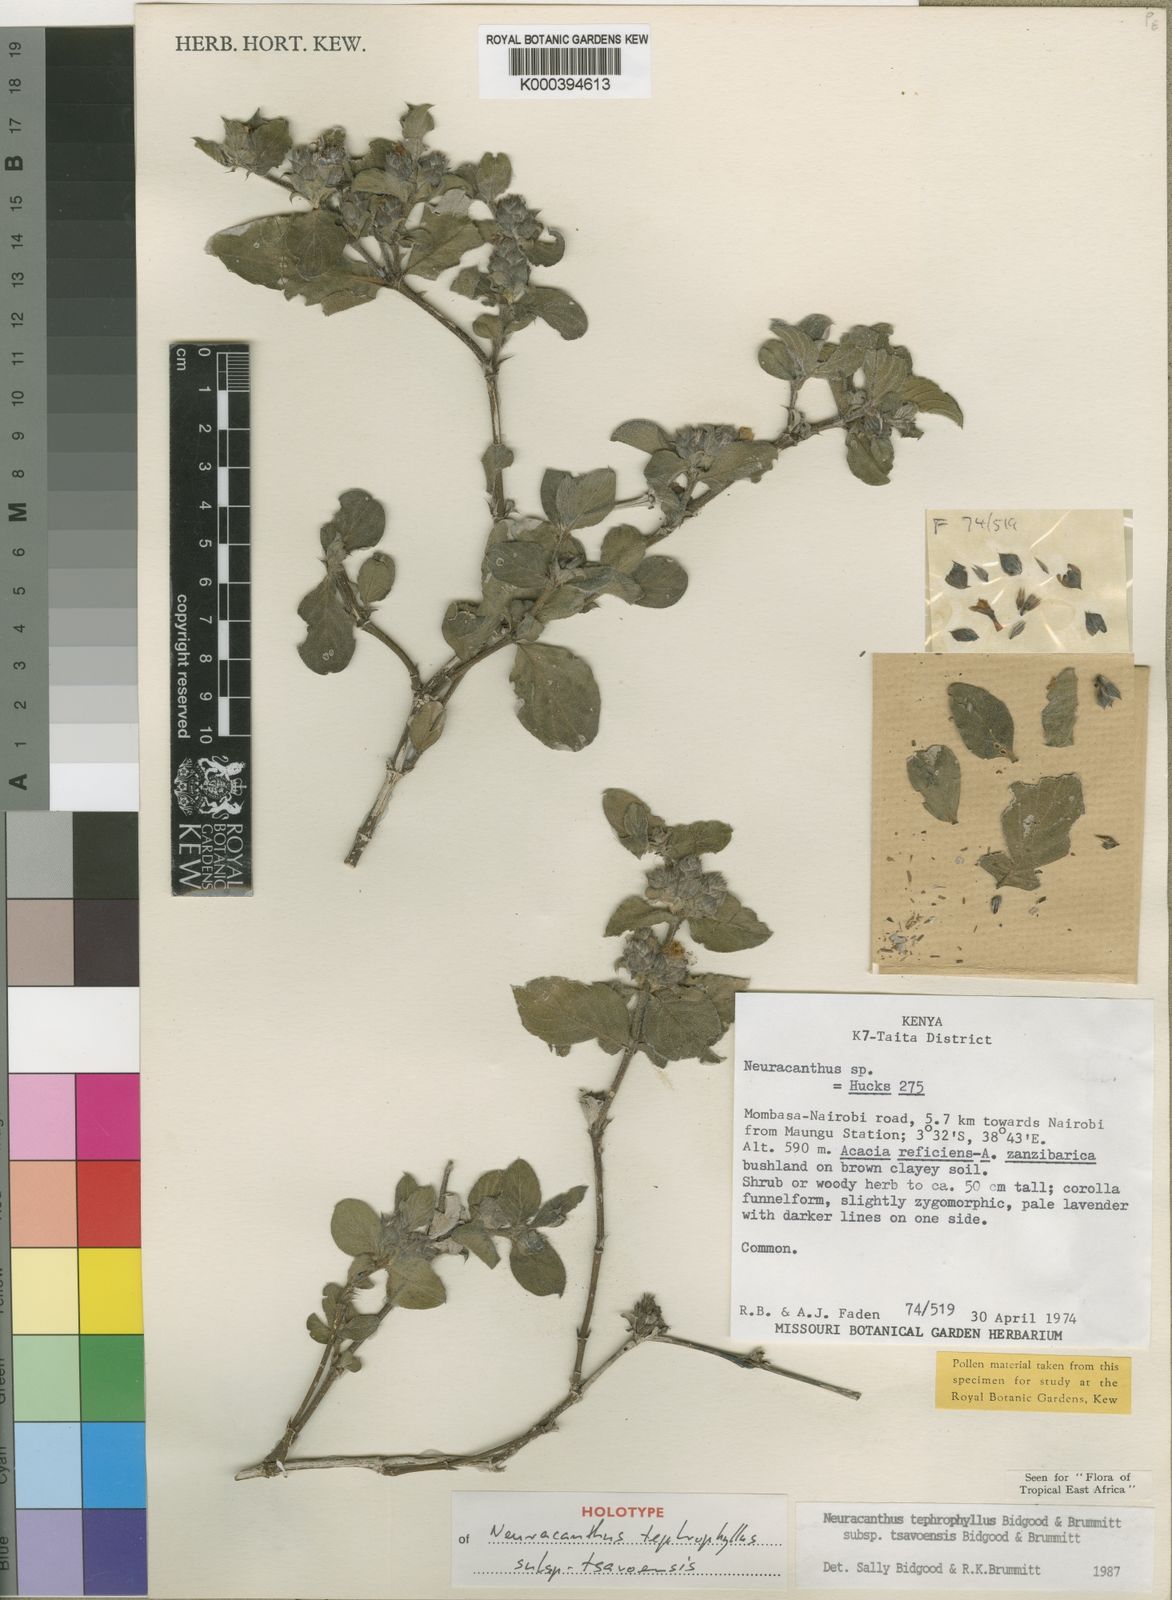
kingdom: Plantae
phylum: Tracheophyta
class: Magnoliopsida
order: Lamiales
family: Acanthaceae
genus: Neuracanthus
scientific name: Neuracanthus tephrophyllus
